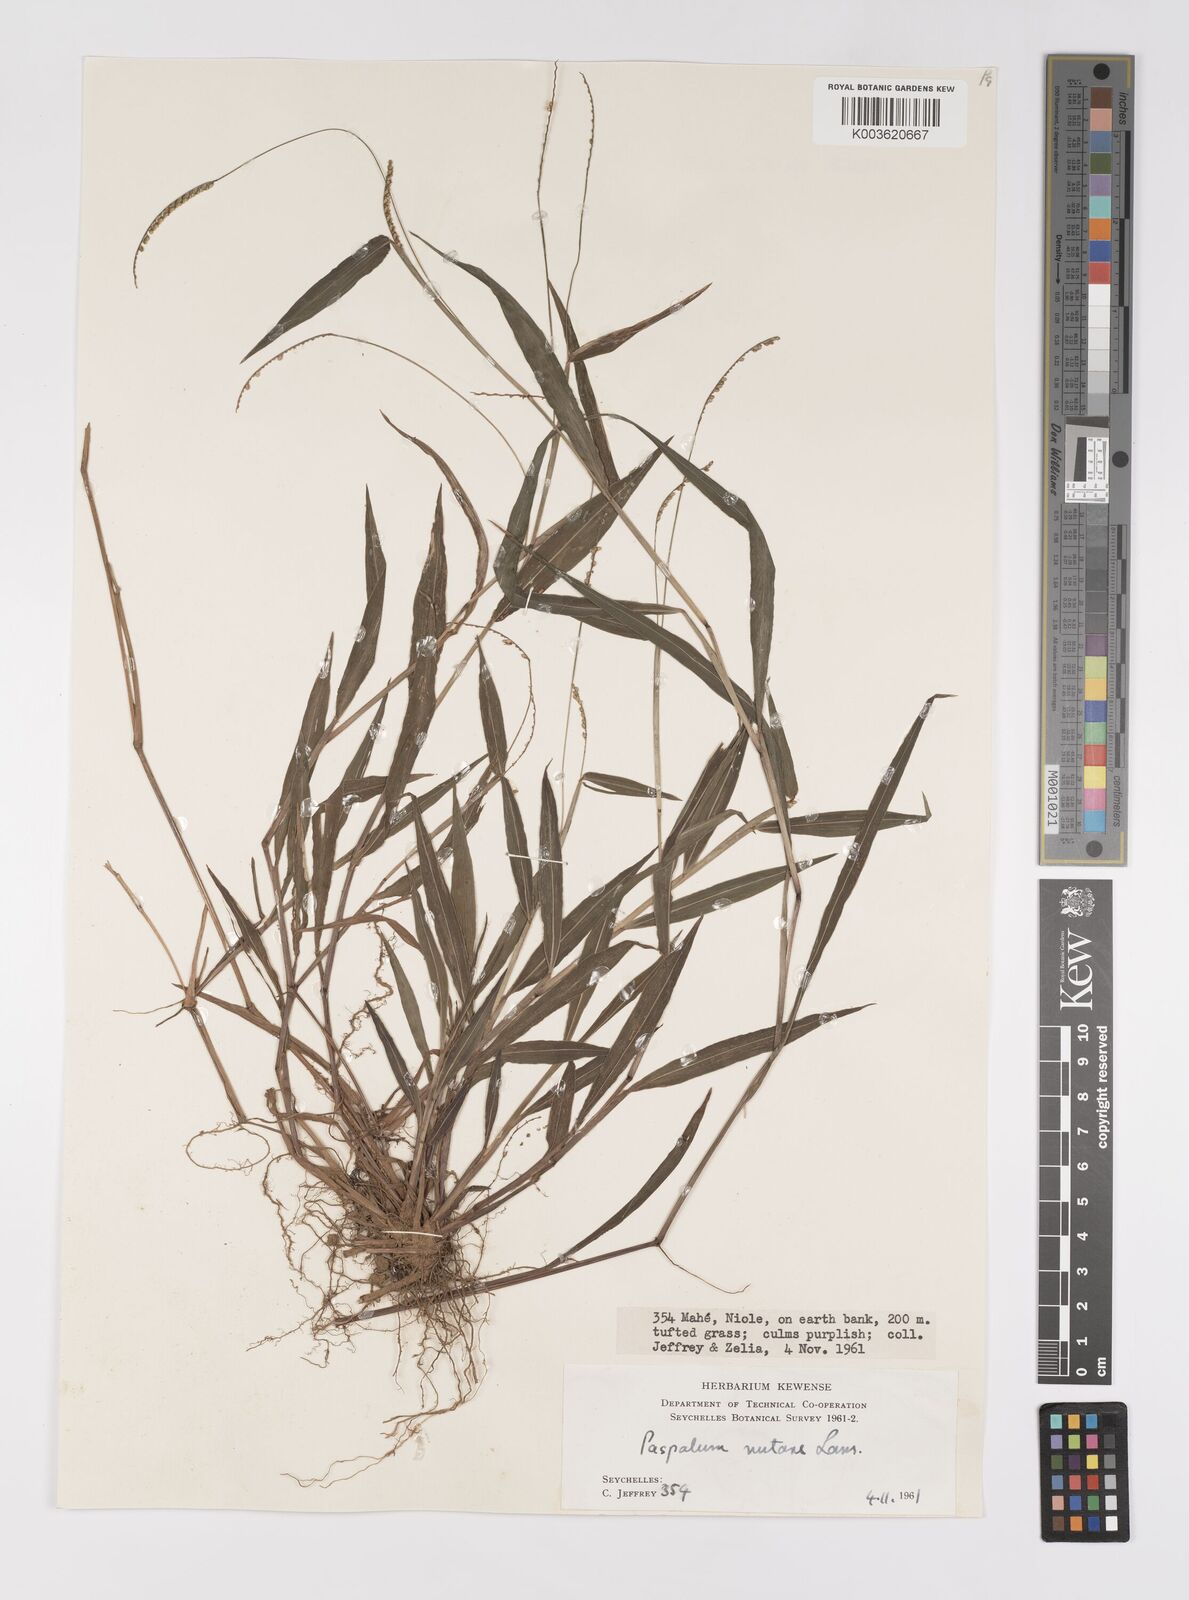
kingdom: Plantae
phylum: Tracheophyta
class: Liliopsida
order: Poales
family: Poaceae
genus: Paspalum
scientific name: Paspalum nutans
